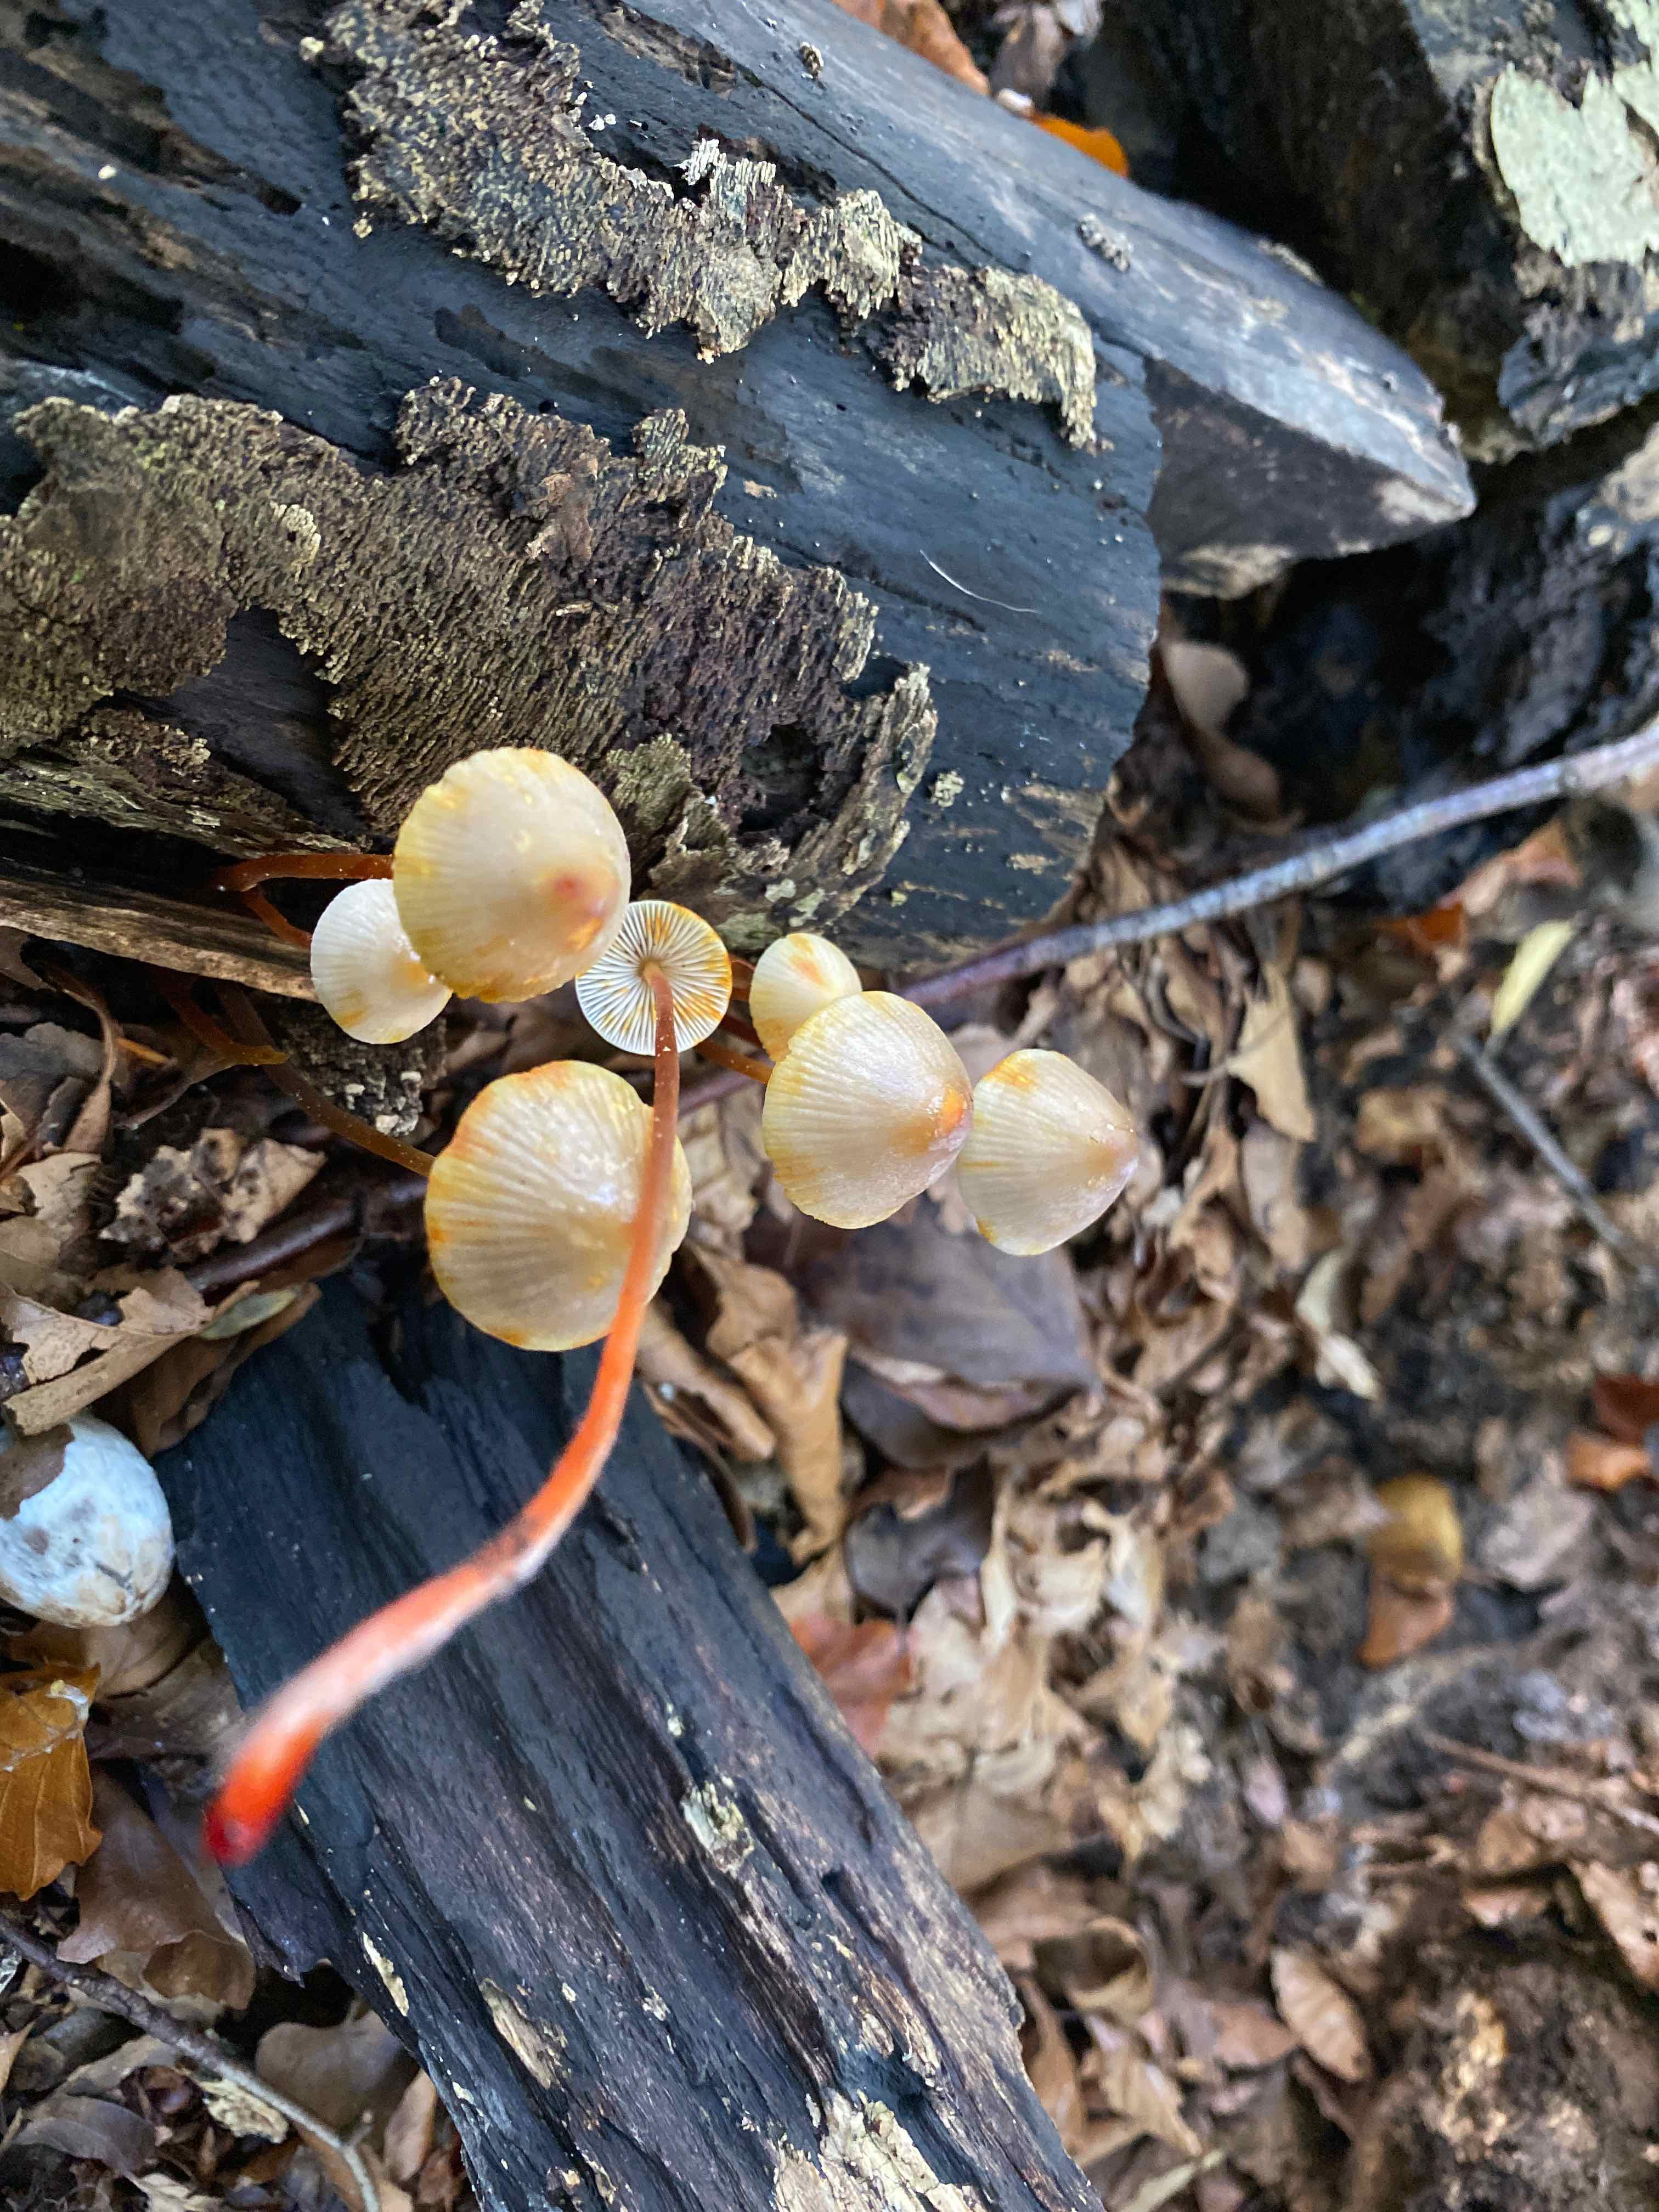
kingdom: Fungi
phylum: Basidiomycota
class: Agaricomycetes
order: Agaricales
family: Mycenaceae
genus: Mycena
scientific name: Mycena crocata
